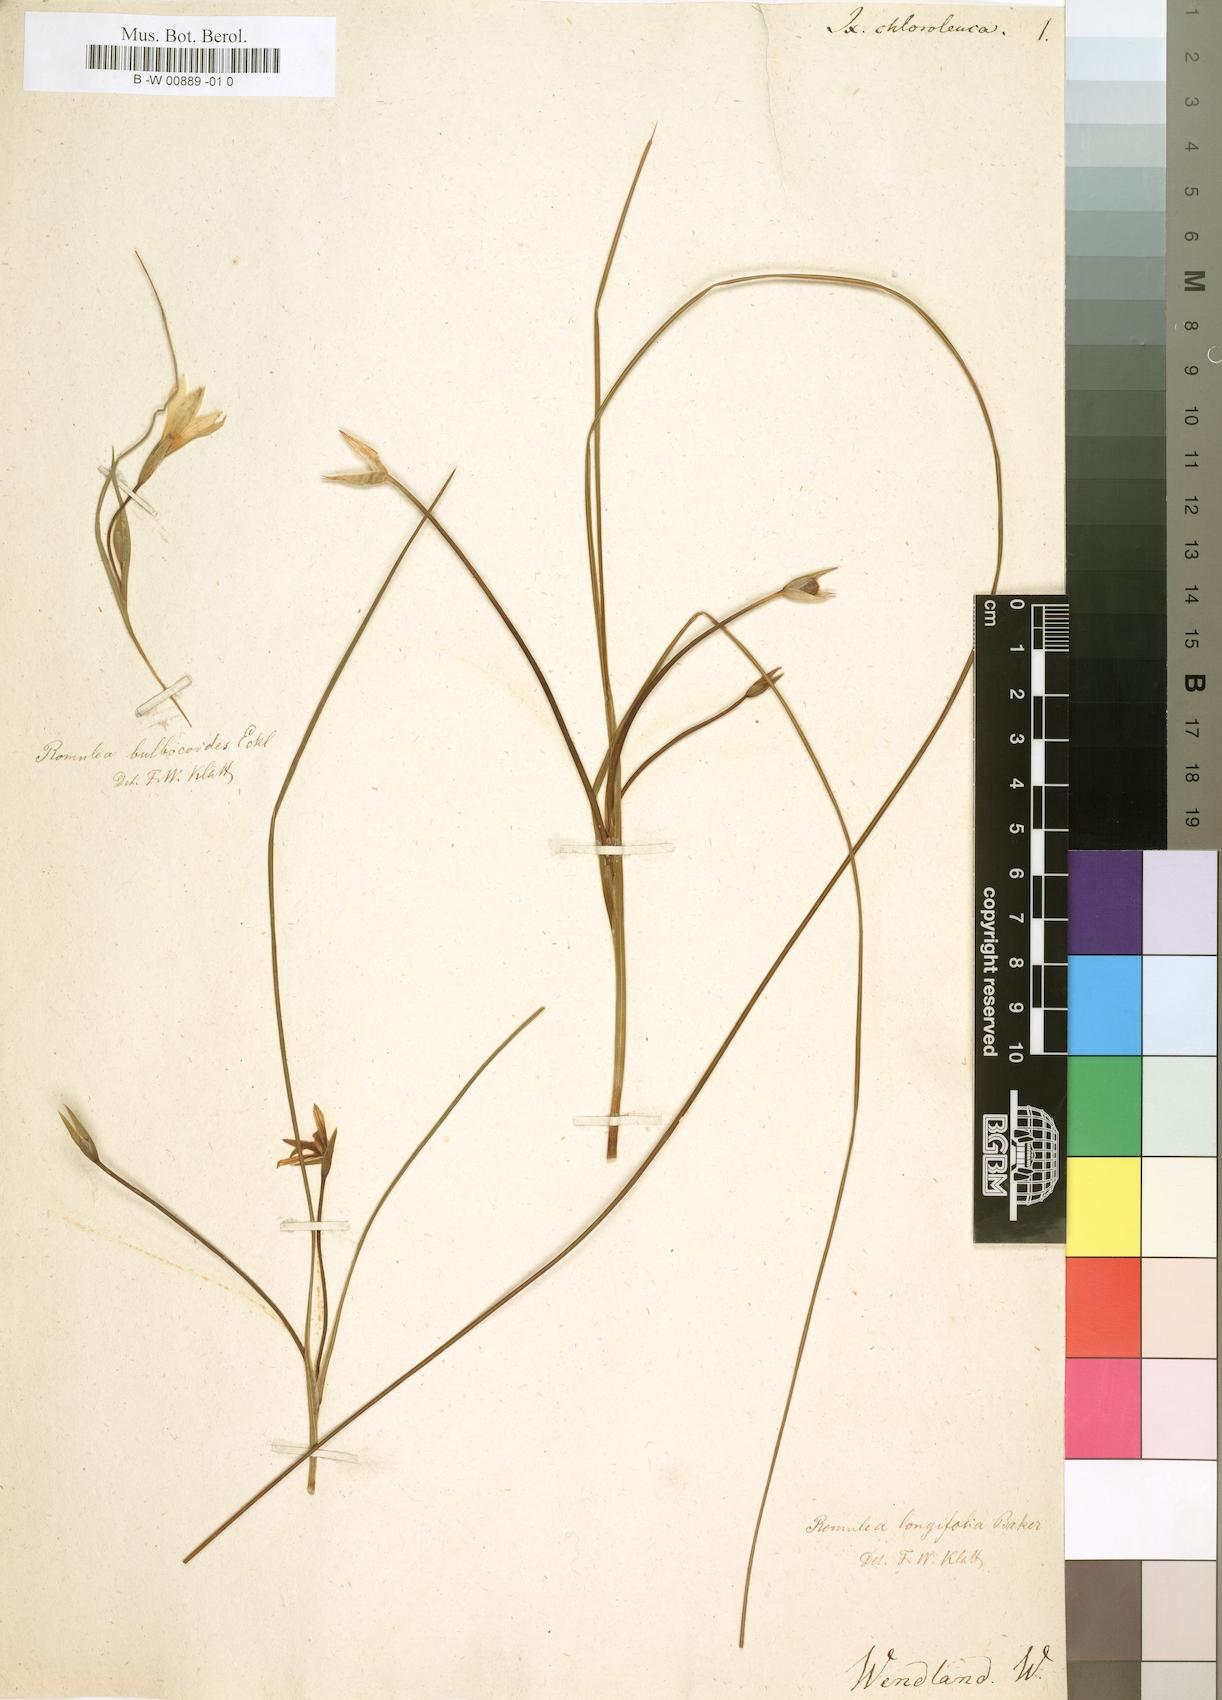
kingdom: Plantae
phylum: Tracheophyta
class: Liliopsida
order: Asparagales
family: Iridaceae
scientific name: Iridaceae
